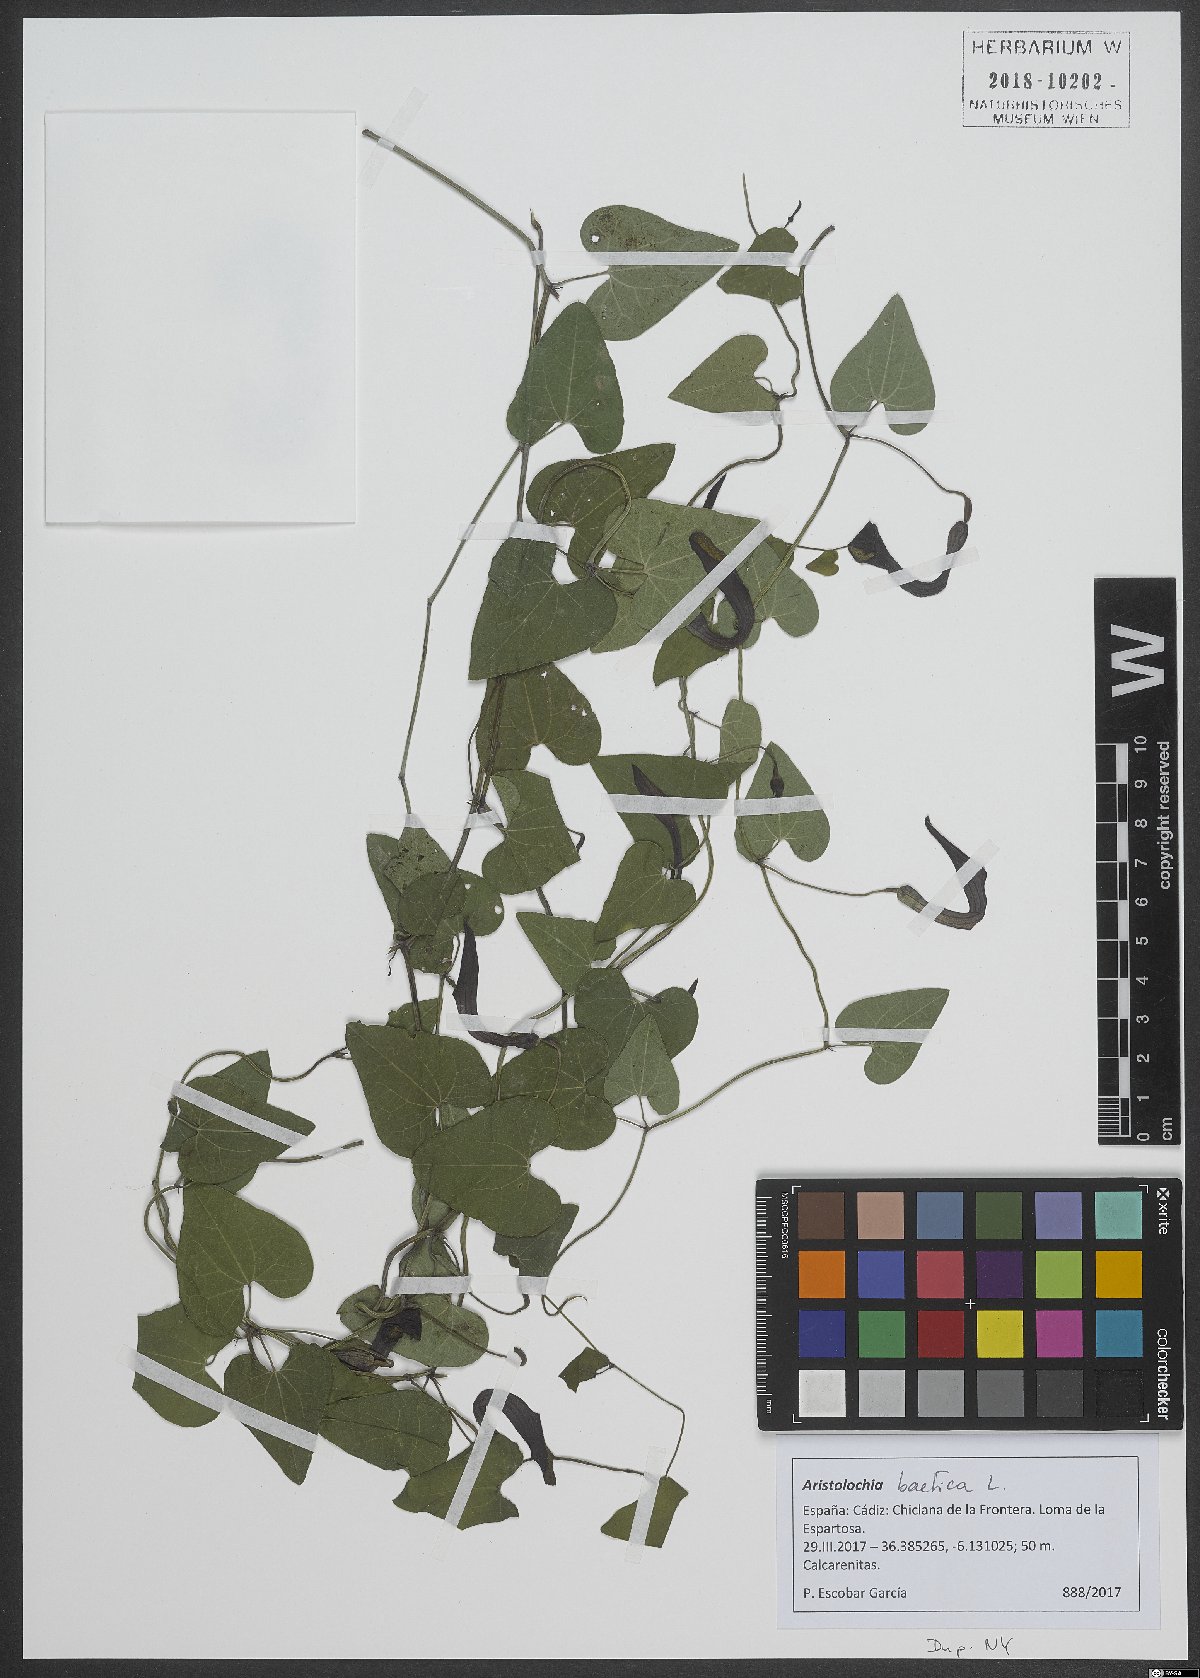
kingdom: Plantae
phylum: Tracheophyta
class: Magnoliopsida
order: Piperales
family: Aristolochiaceae
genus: Aristolochia
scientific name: Aristolochia baetica
